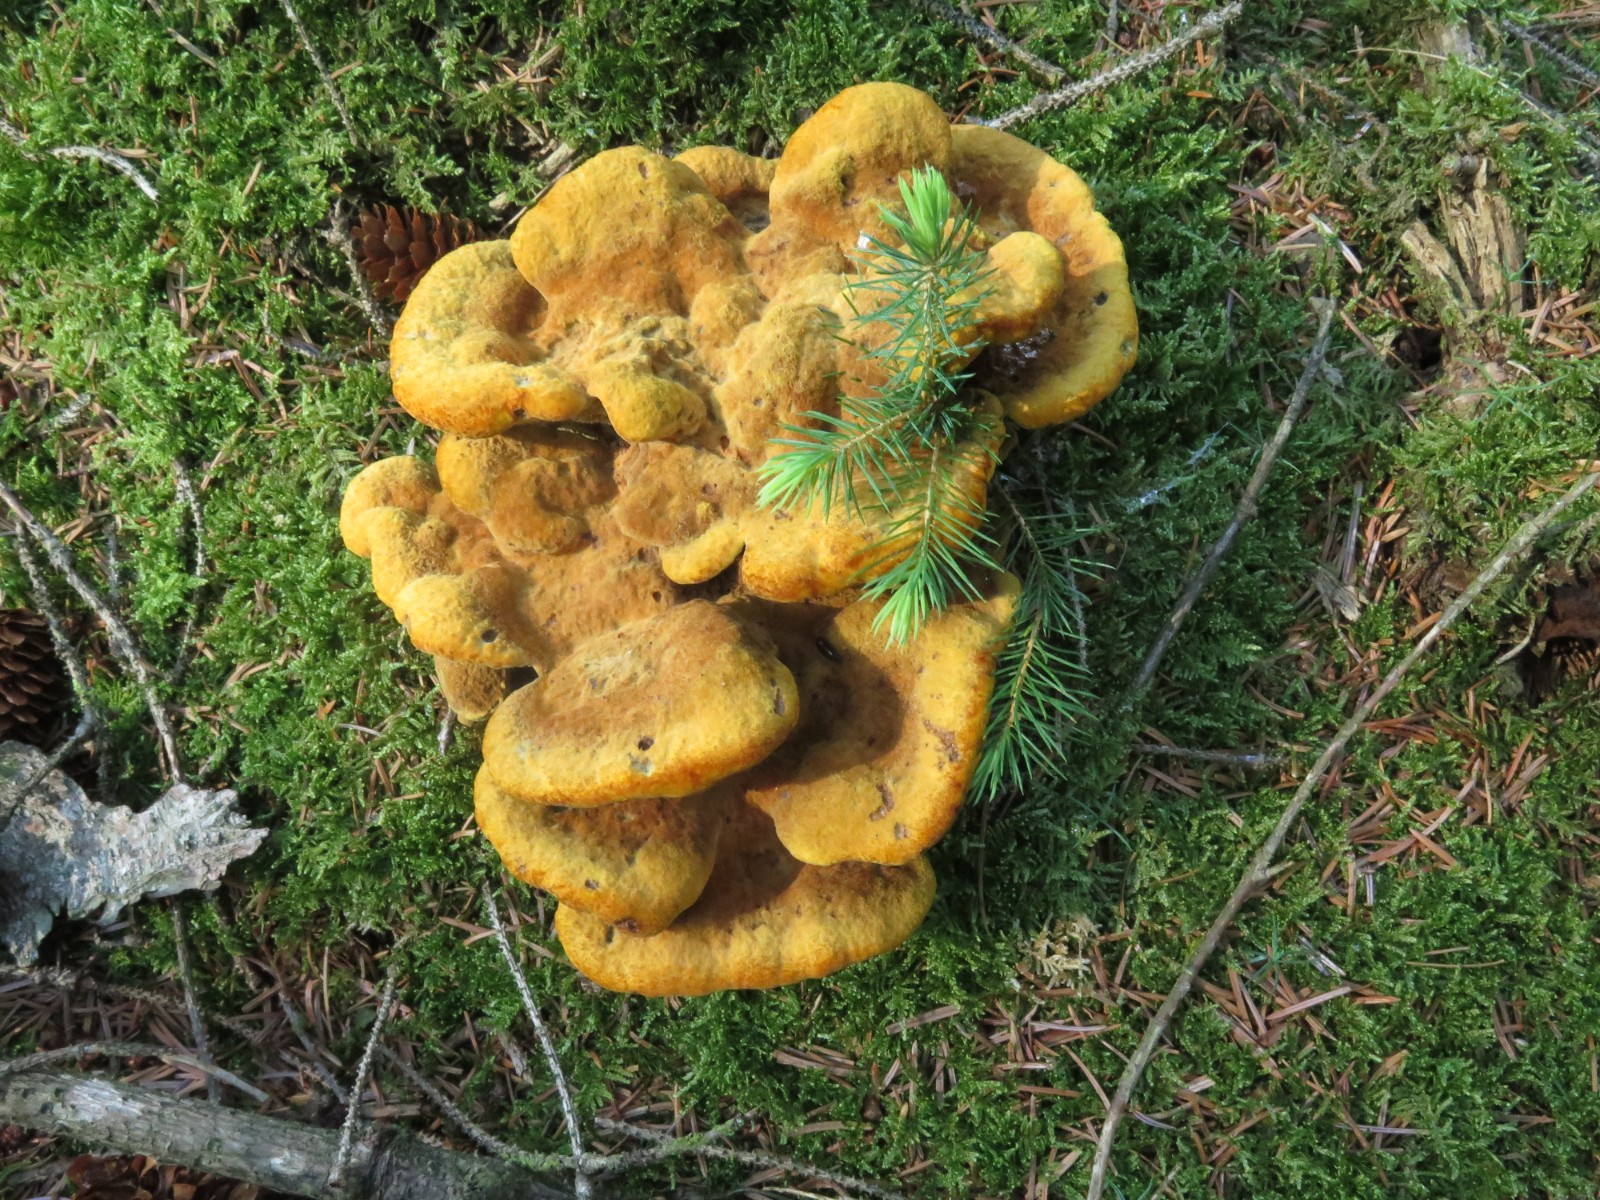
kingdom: Fungi
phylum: Basidiomycota
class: Agaricomycetes
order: Polyporales
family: Laetiporaceae
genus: Phaeolus
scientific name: Phaeolus schweinitzii
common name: brunporesvamp
